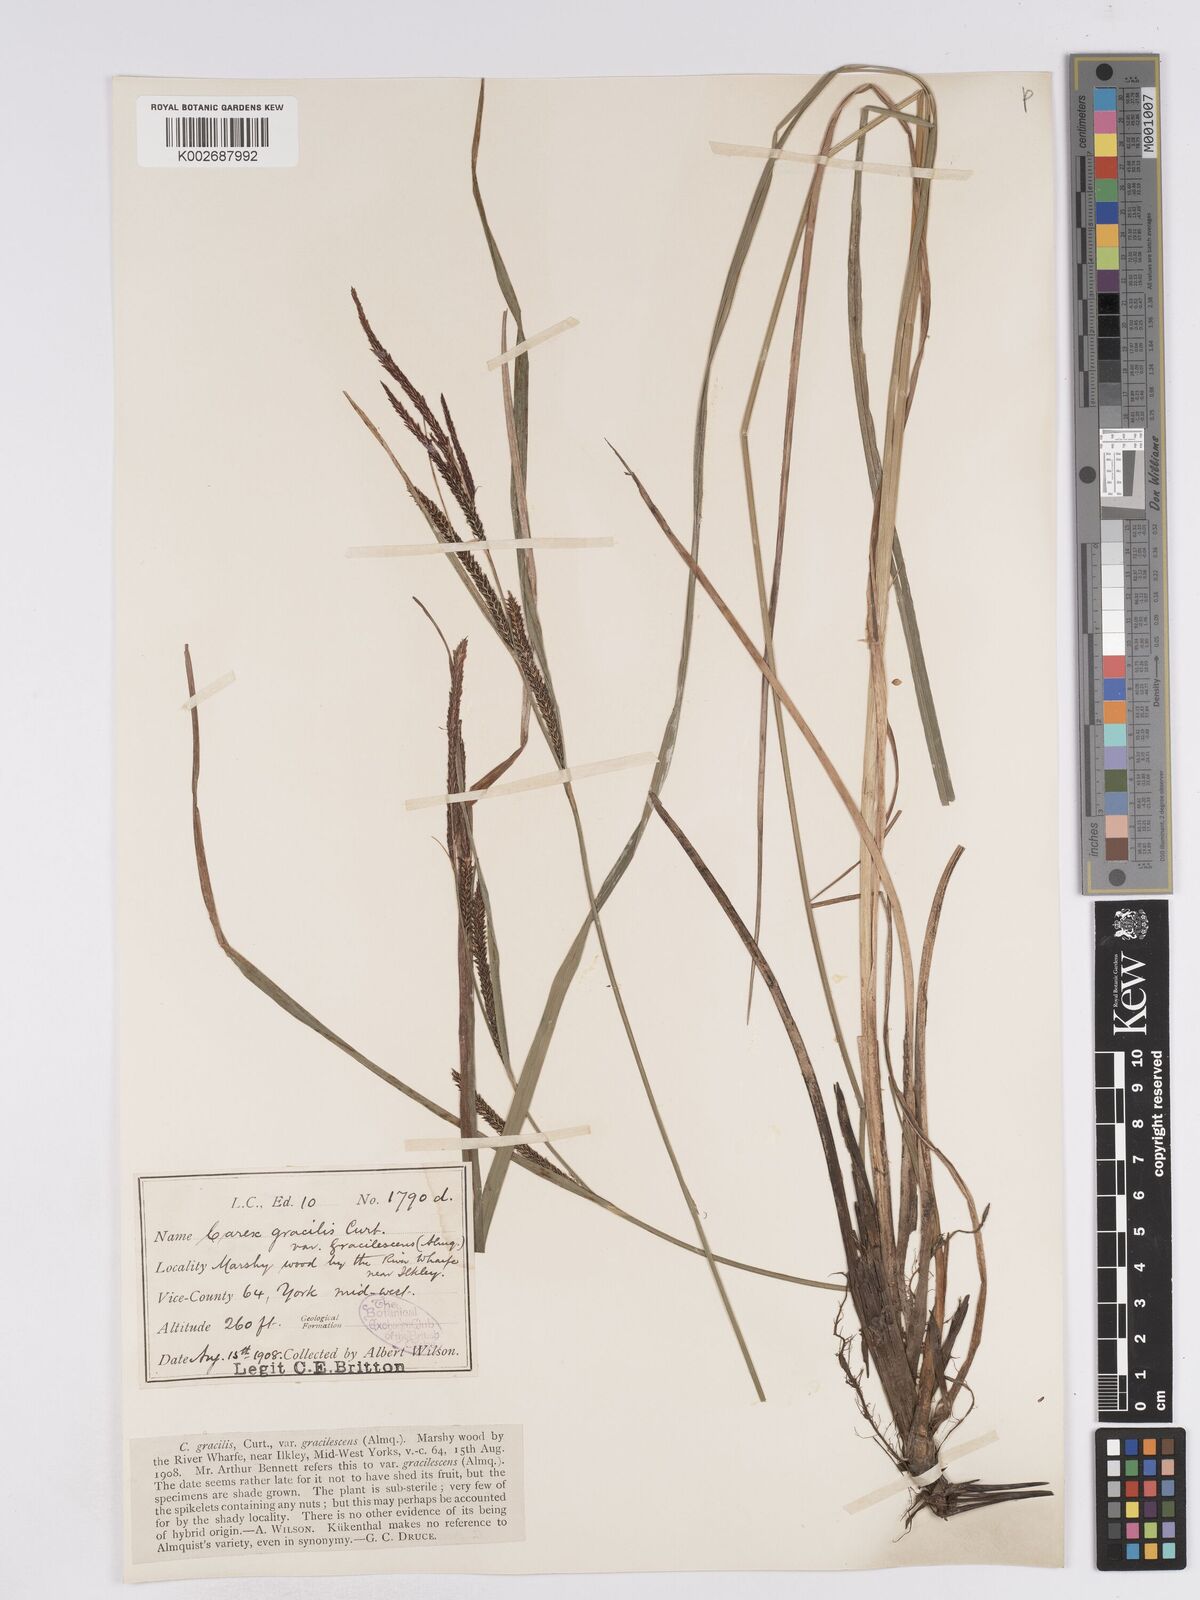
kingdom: Plantae
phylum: Tracheophyta
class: Liliopsida
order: Poales
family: Cyperaceae
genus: Carex
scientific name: Carex acuta
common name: Slender tufted-sedge
